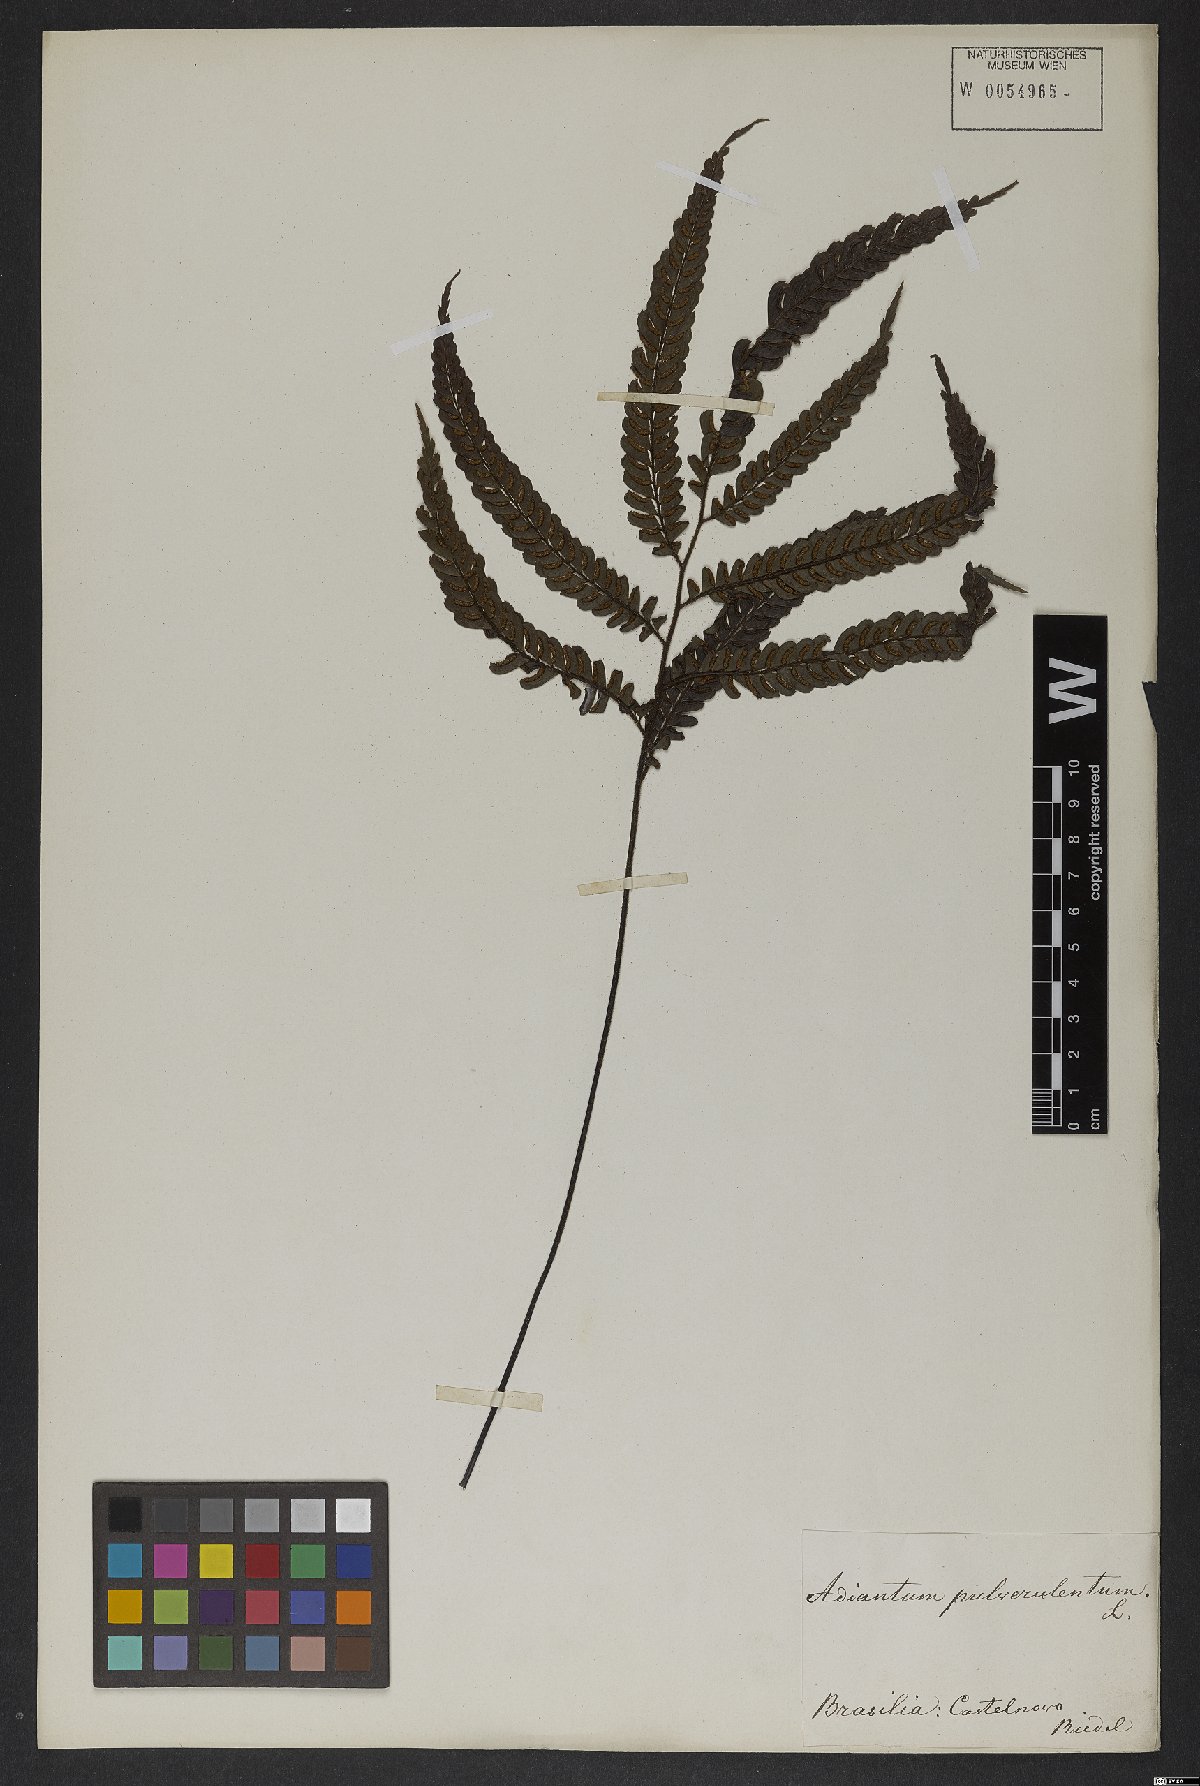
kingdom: Plantae
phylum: Tracheophyta
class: Polypodiopsida
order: Polypodiales
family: Pteridaceae
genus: Adiantum
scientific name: Adiantum pulverulentum
